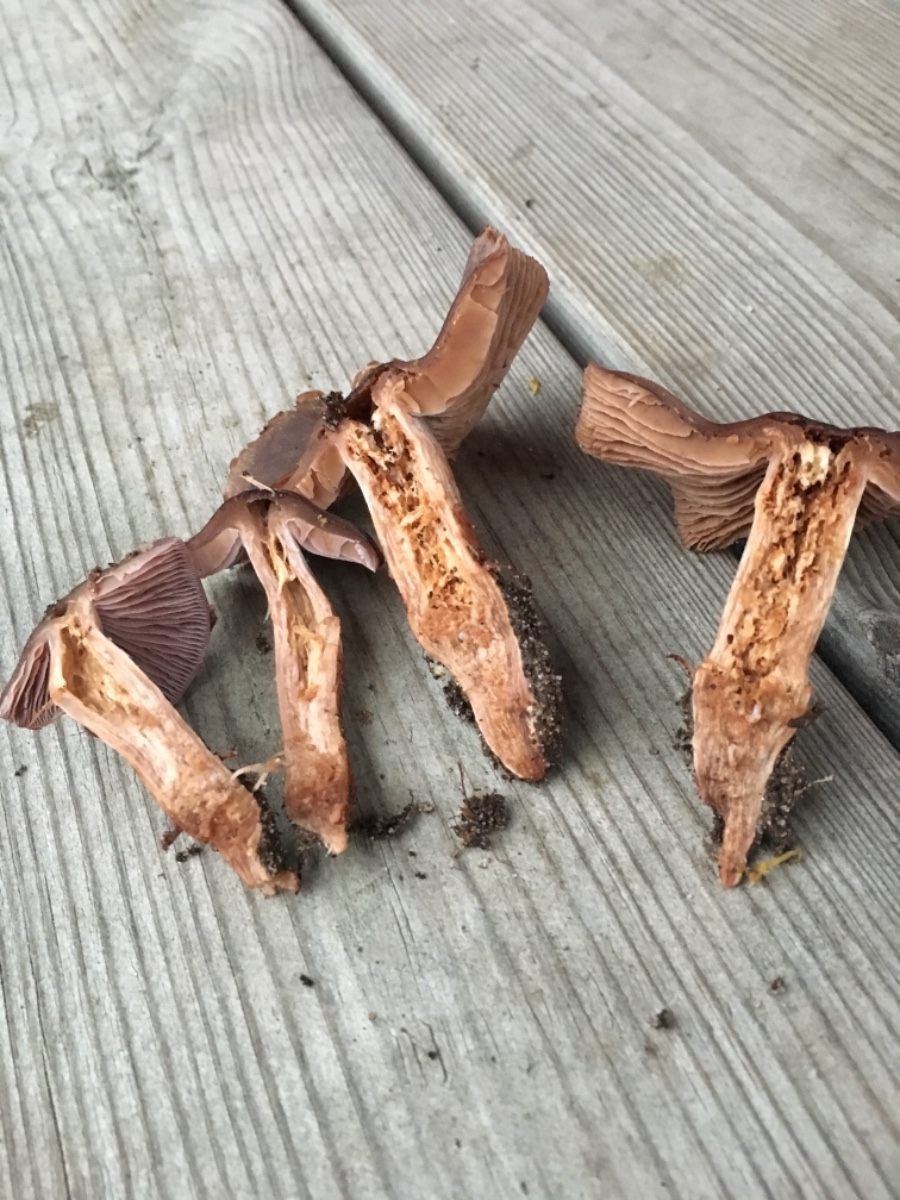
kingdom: Fungi
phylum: Basidiomycota
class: Agaricomycetes
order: Agaricales
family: Cortinariaceae
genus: Cortinarius
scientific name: Cortinarius
